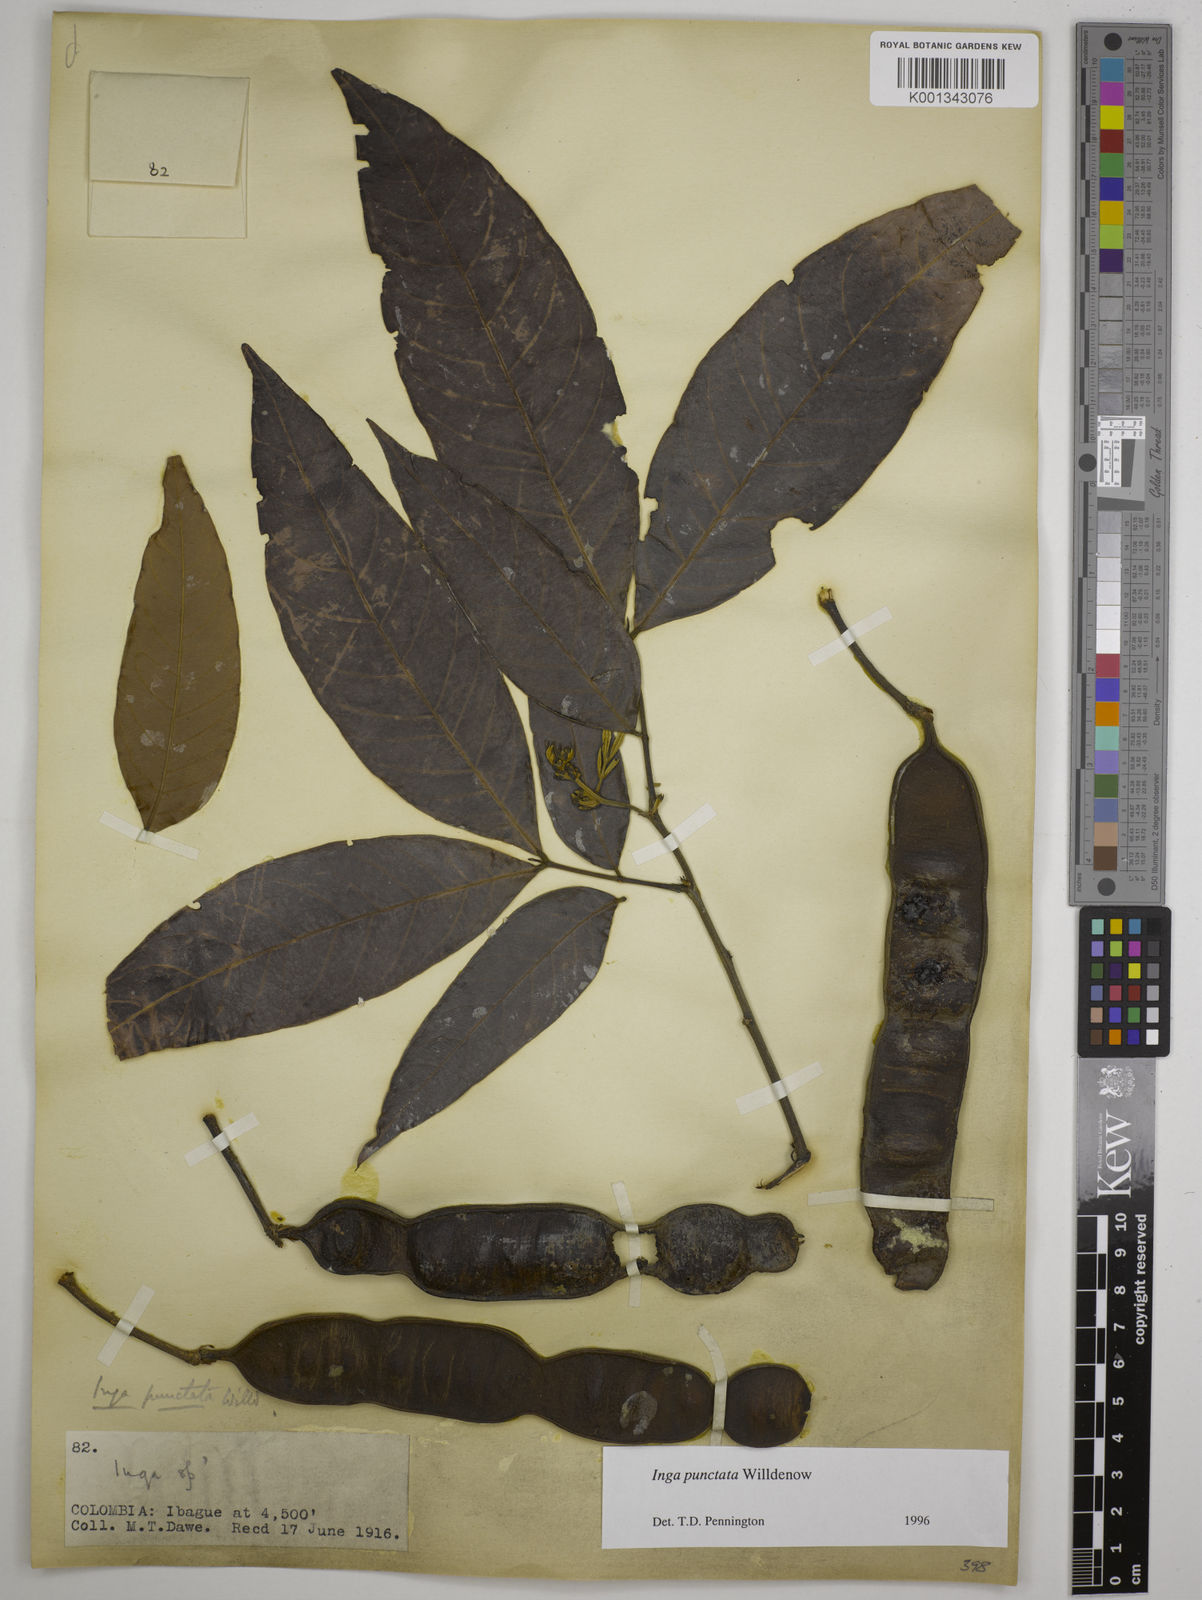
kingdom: Plantae
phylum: Tracheophyta
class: Magnoliopsida
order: Fabales
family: Fabaceae
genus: Inga
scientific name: Inga punctata
